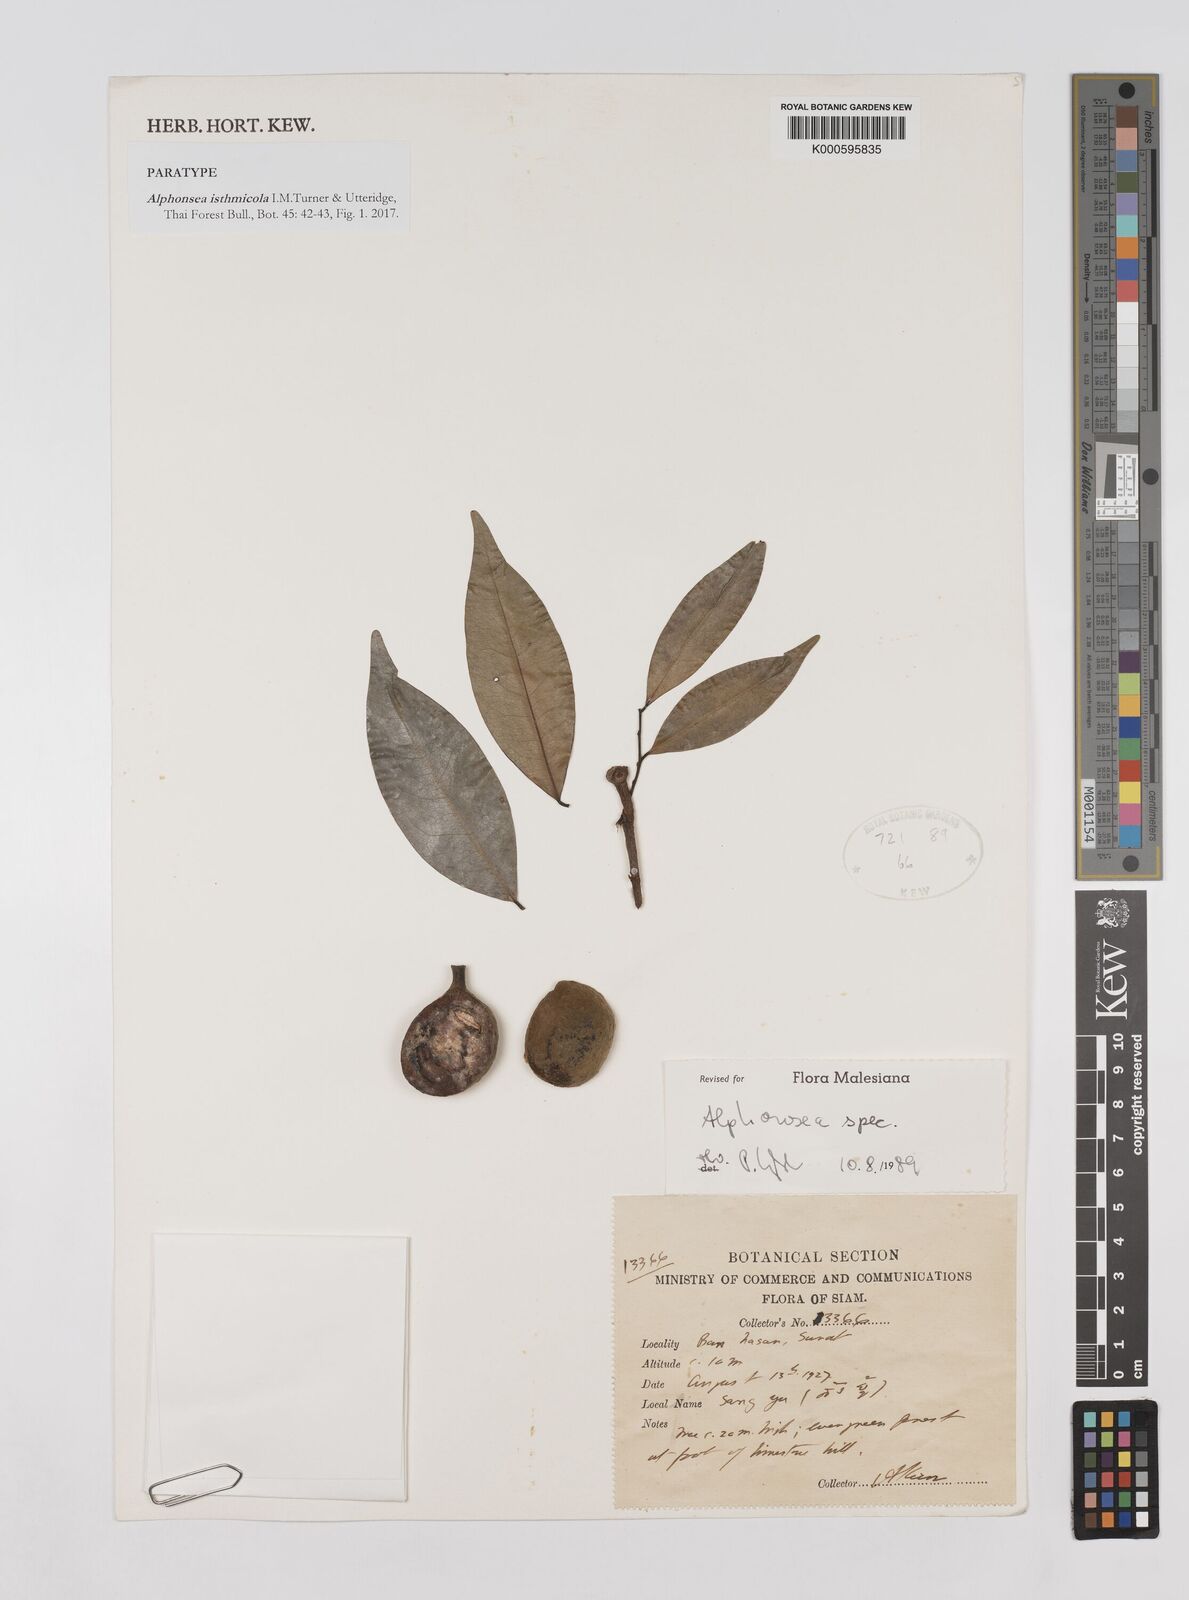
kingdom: Plantae
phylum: Tracheophyta
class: Magnoliopsida
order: Magnoliales
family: Annonaceae
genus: Alphonsea
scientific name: Alphonsea
